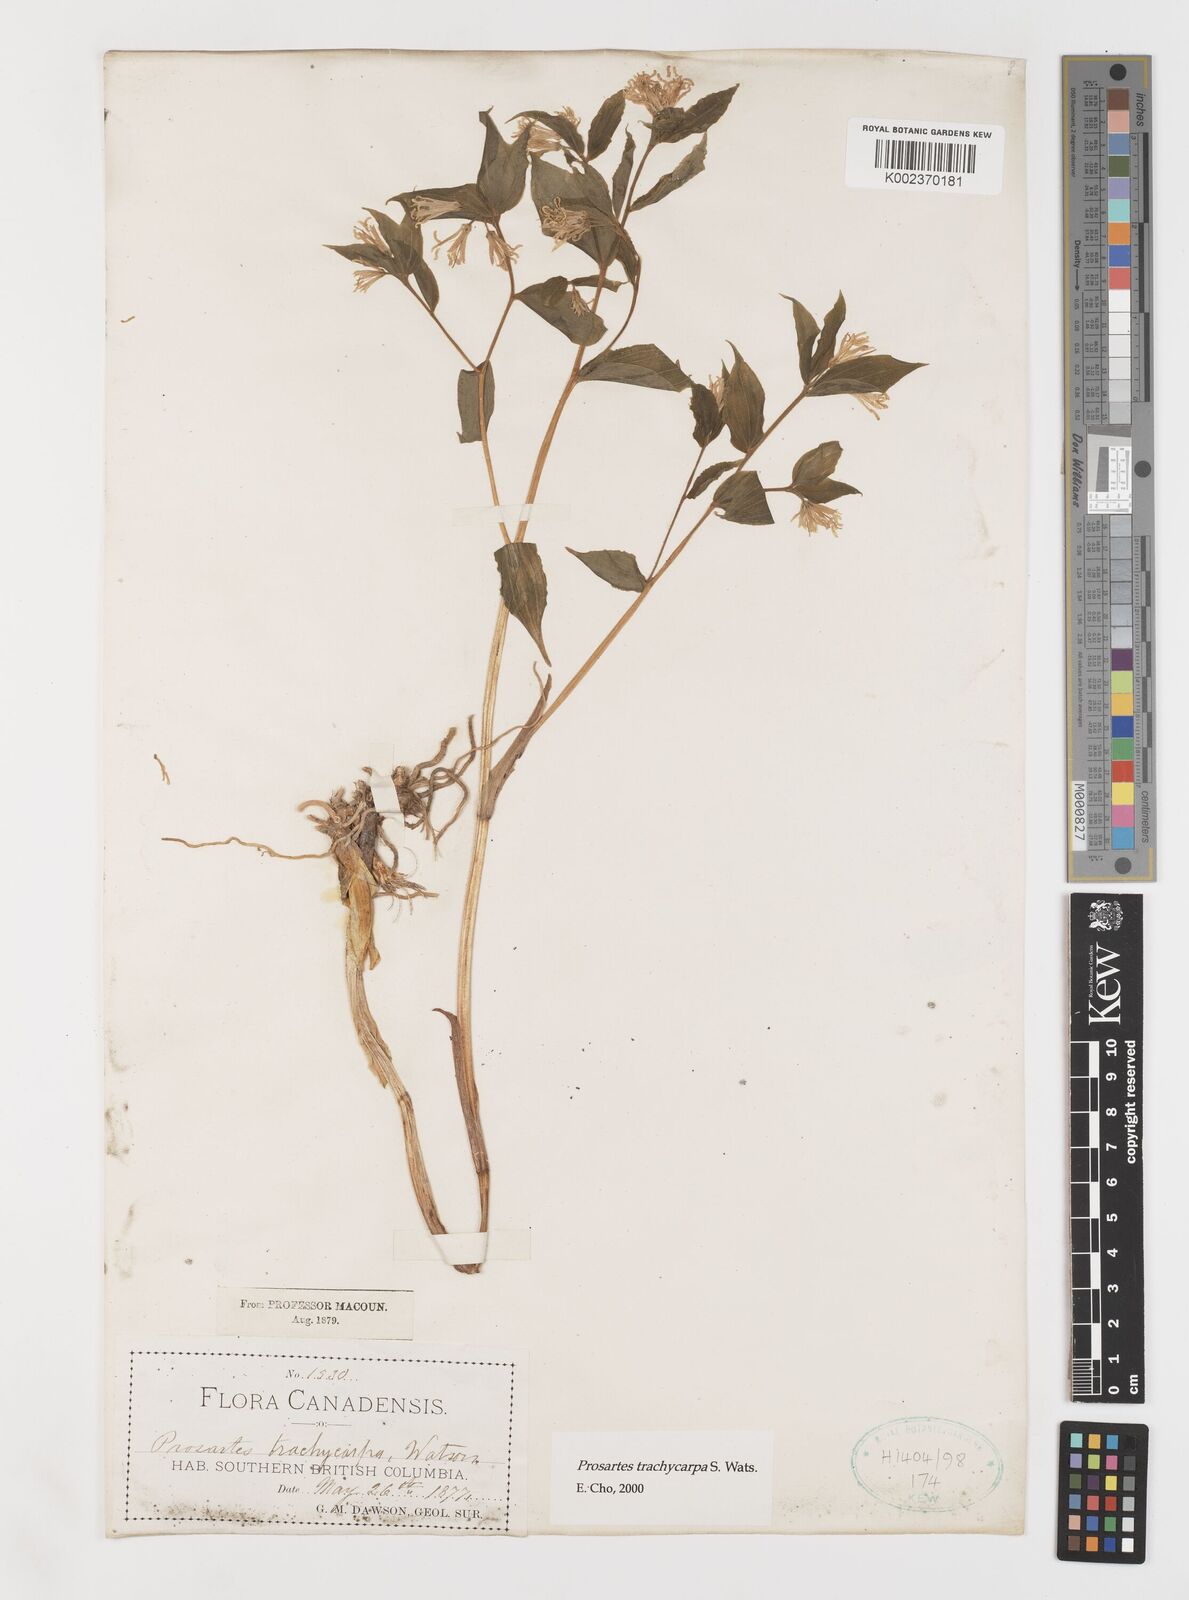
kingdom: Plantae
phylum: Tracheophyta
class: Liliopsida
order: Liliales
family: Liliaceae
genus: Prosartes
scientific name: Prosartes trachycarpa
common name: Rough-fruit fairy-bells
